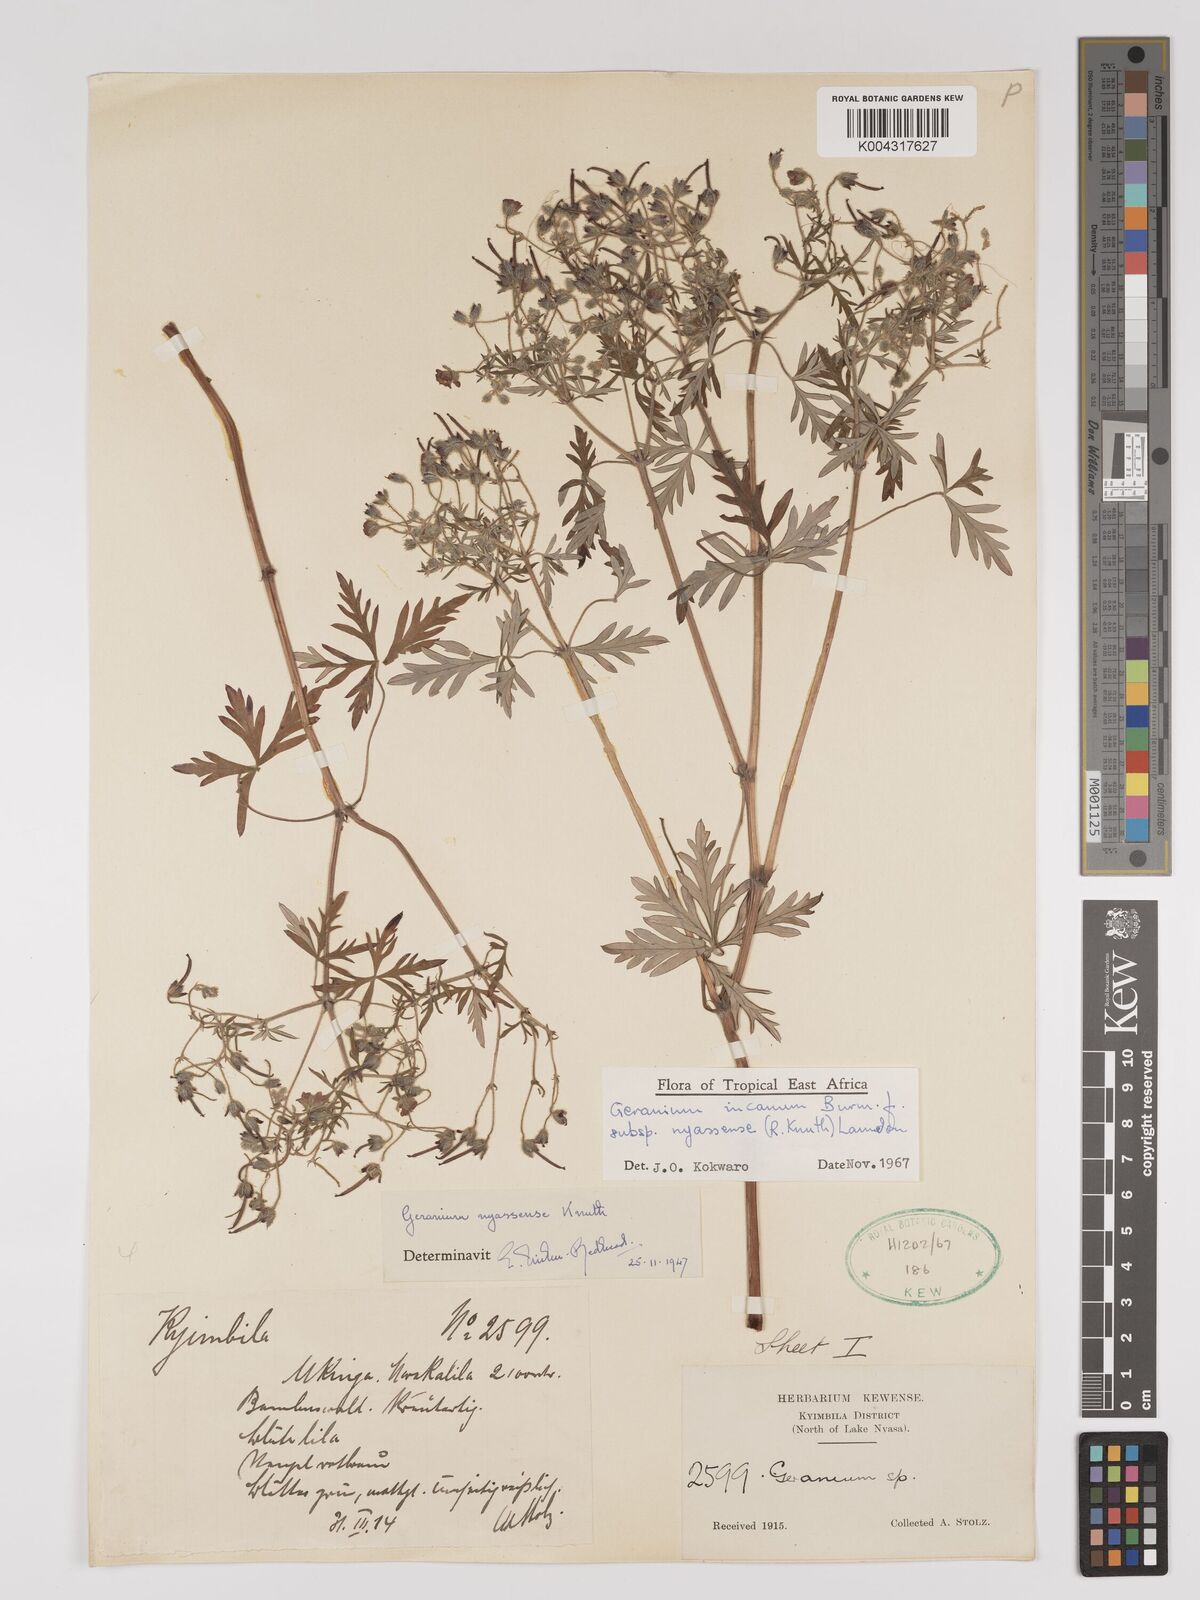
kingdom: Plantae
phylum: Tracheophyta
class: Magnoliopsida
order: Geraniales
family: Geraniaceae
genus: Geranium
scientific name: Geranium incanum
